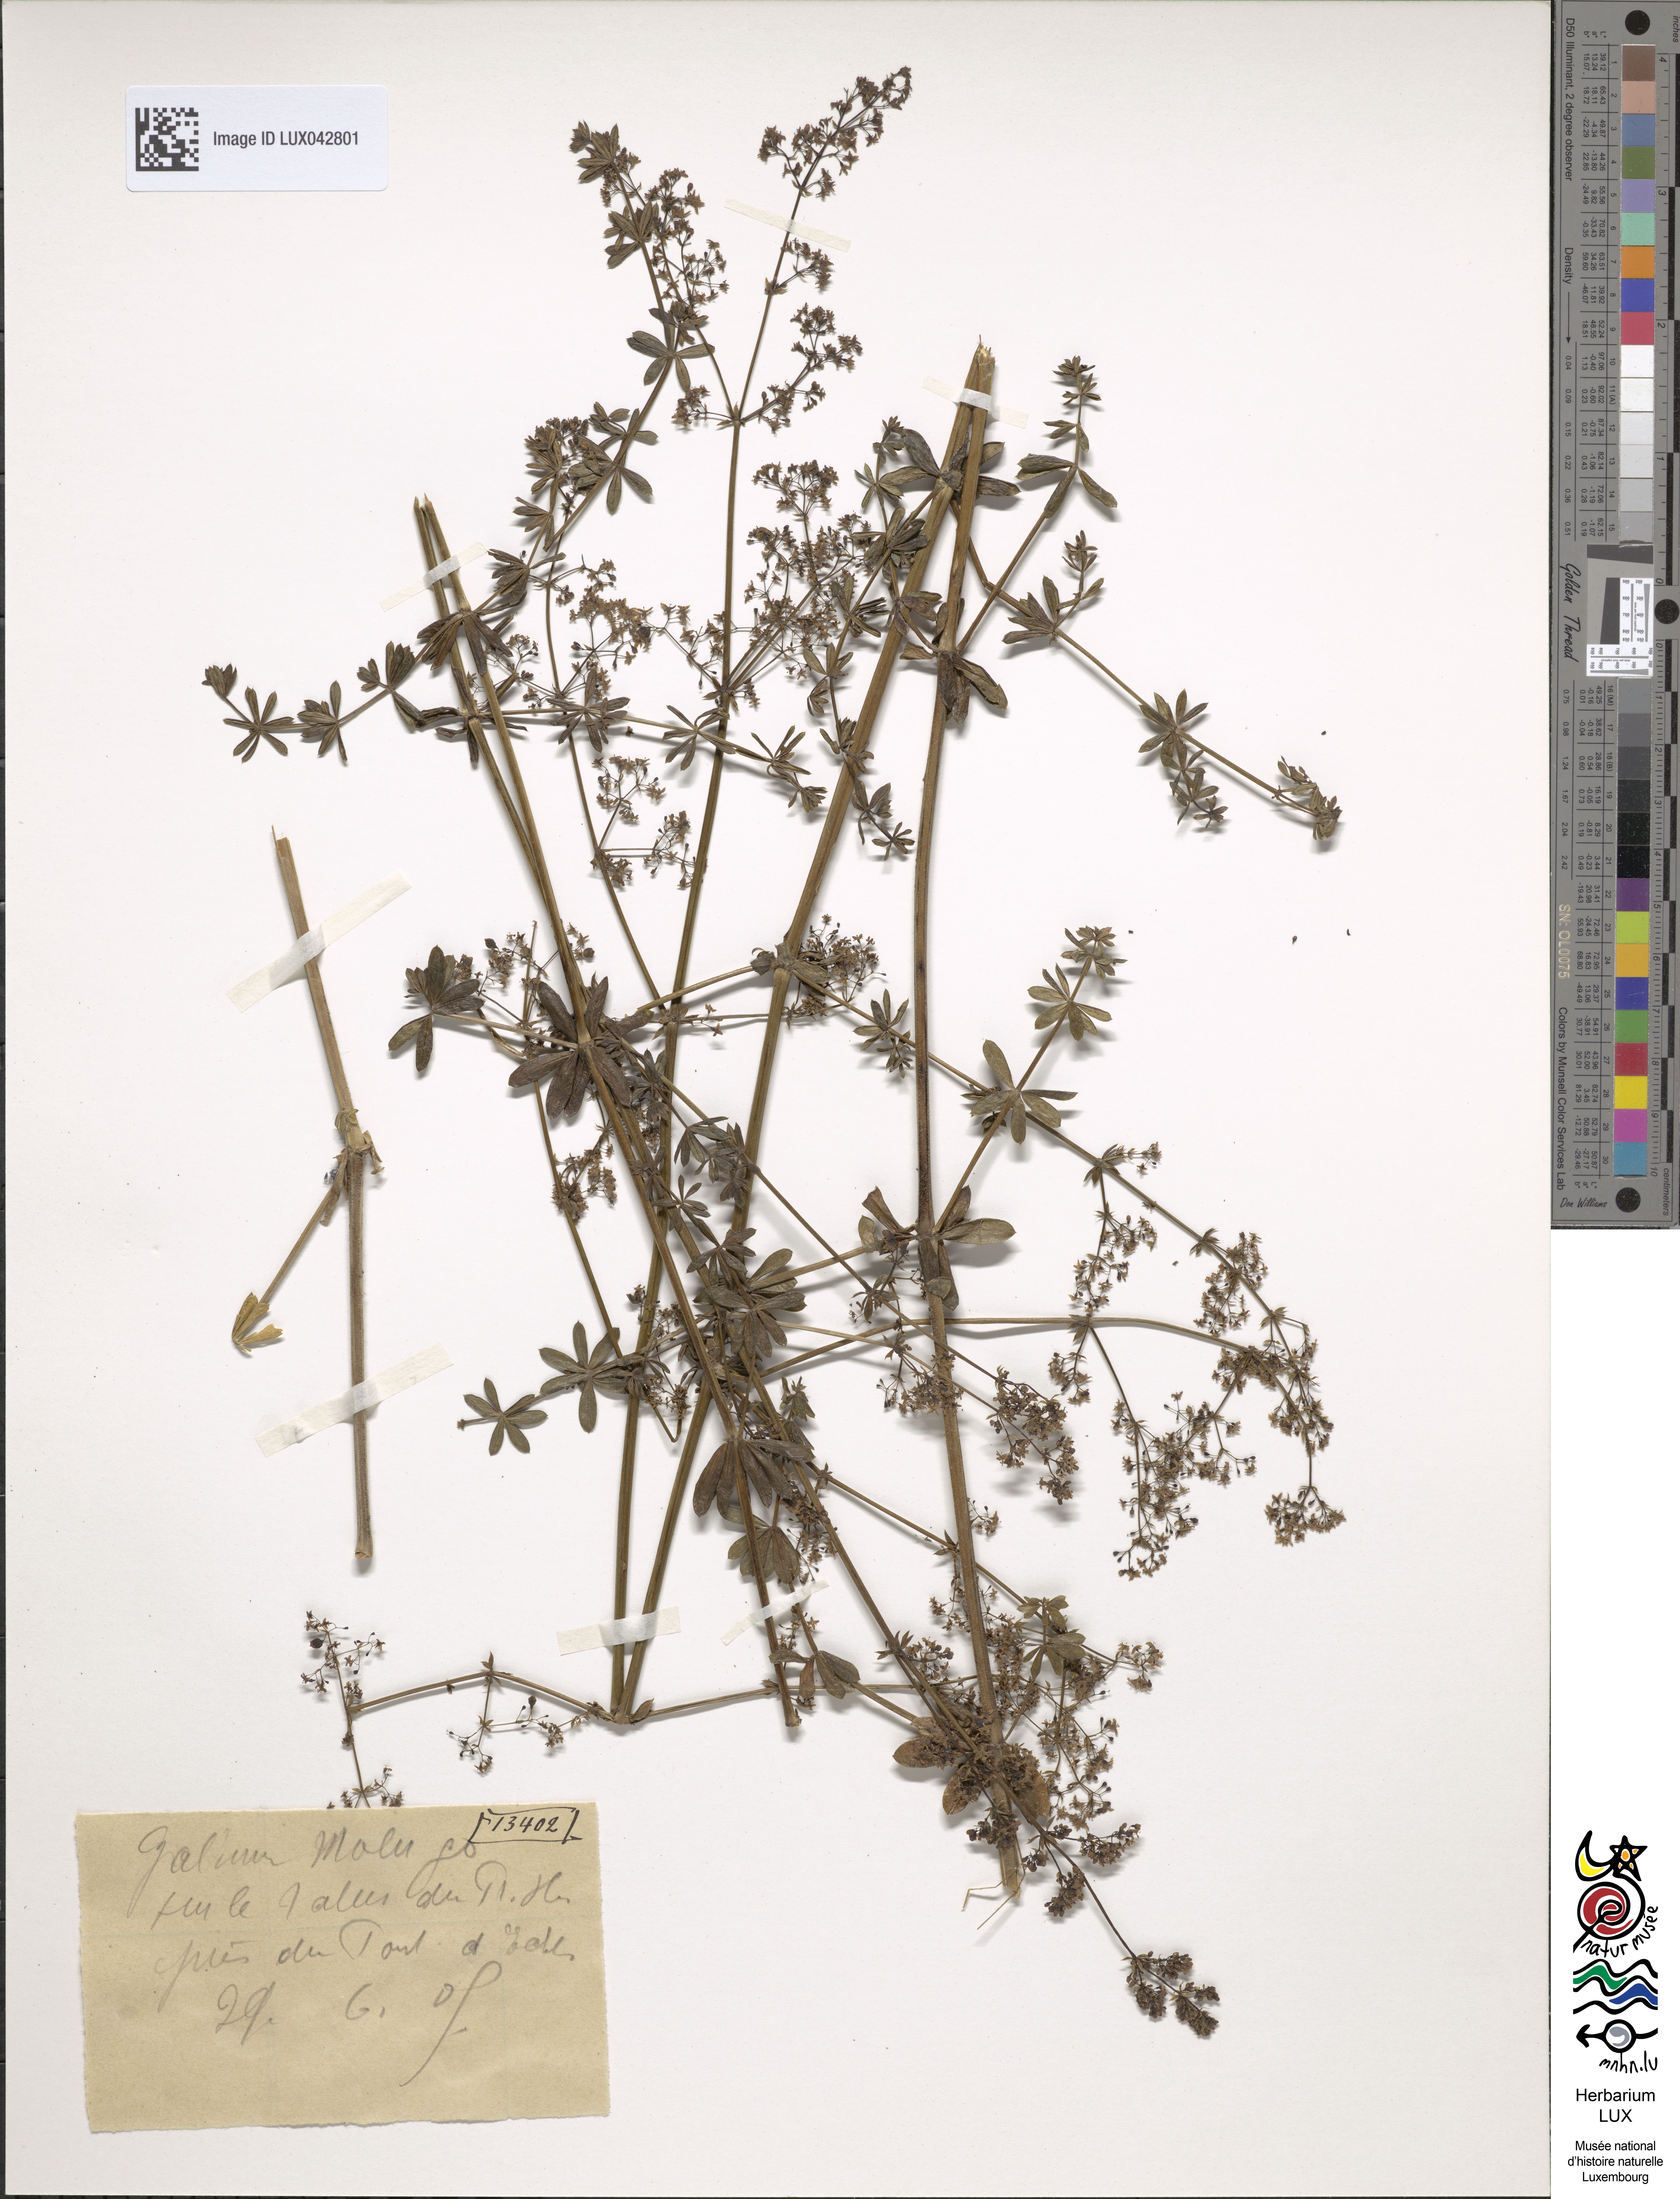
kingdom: Plantae
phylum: Tracheophyta
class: Magnoliopsida
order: Gentianales
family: Rubiaceae
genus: Galium
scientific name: Galium mollugo
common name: Hedge bedstraw
